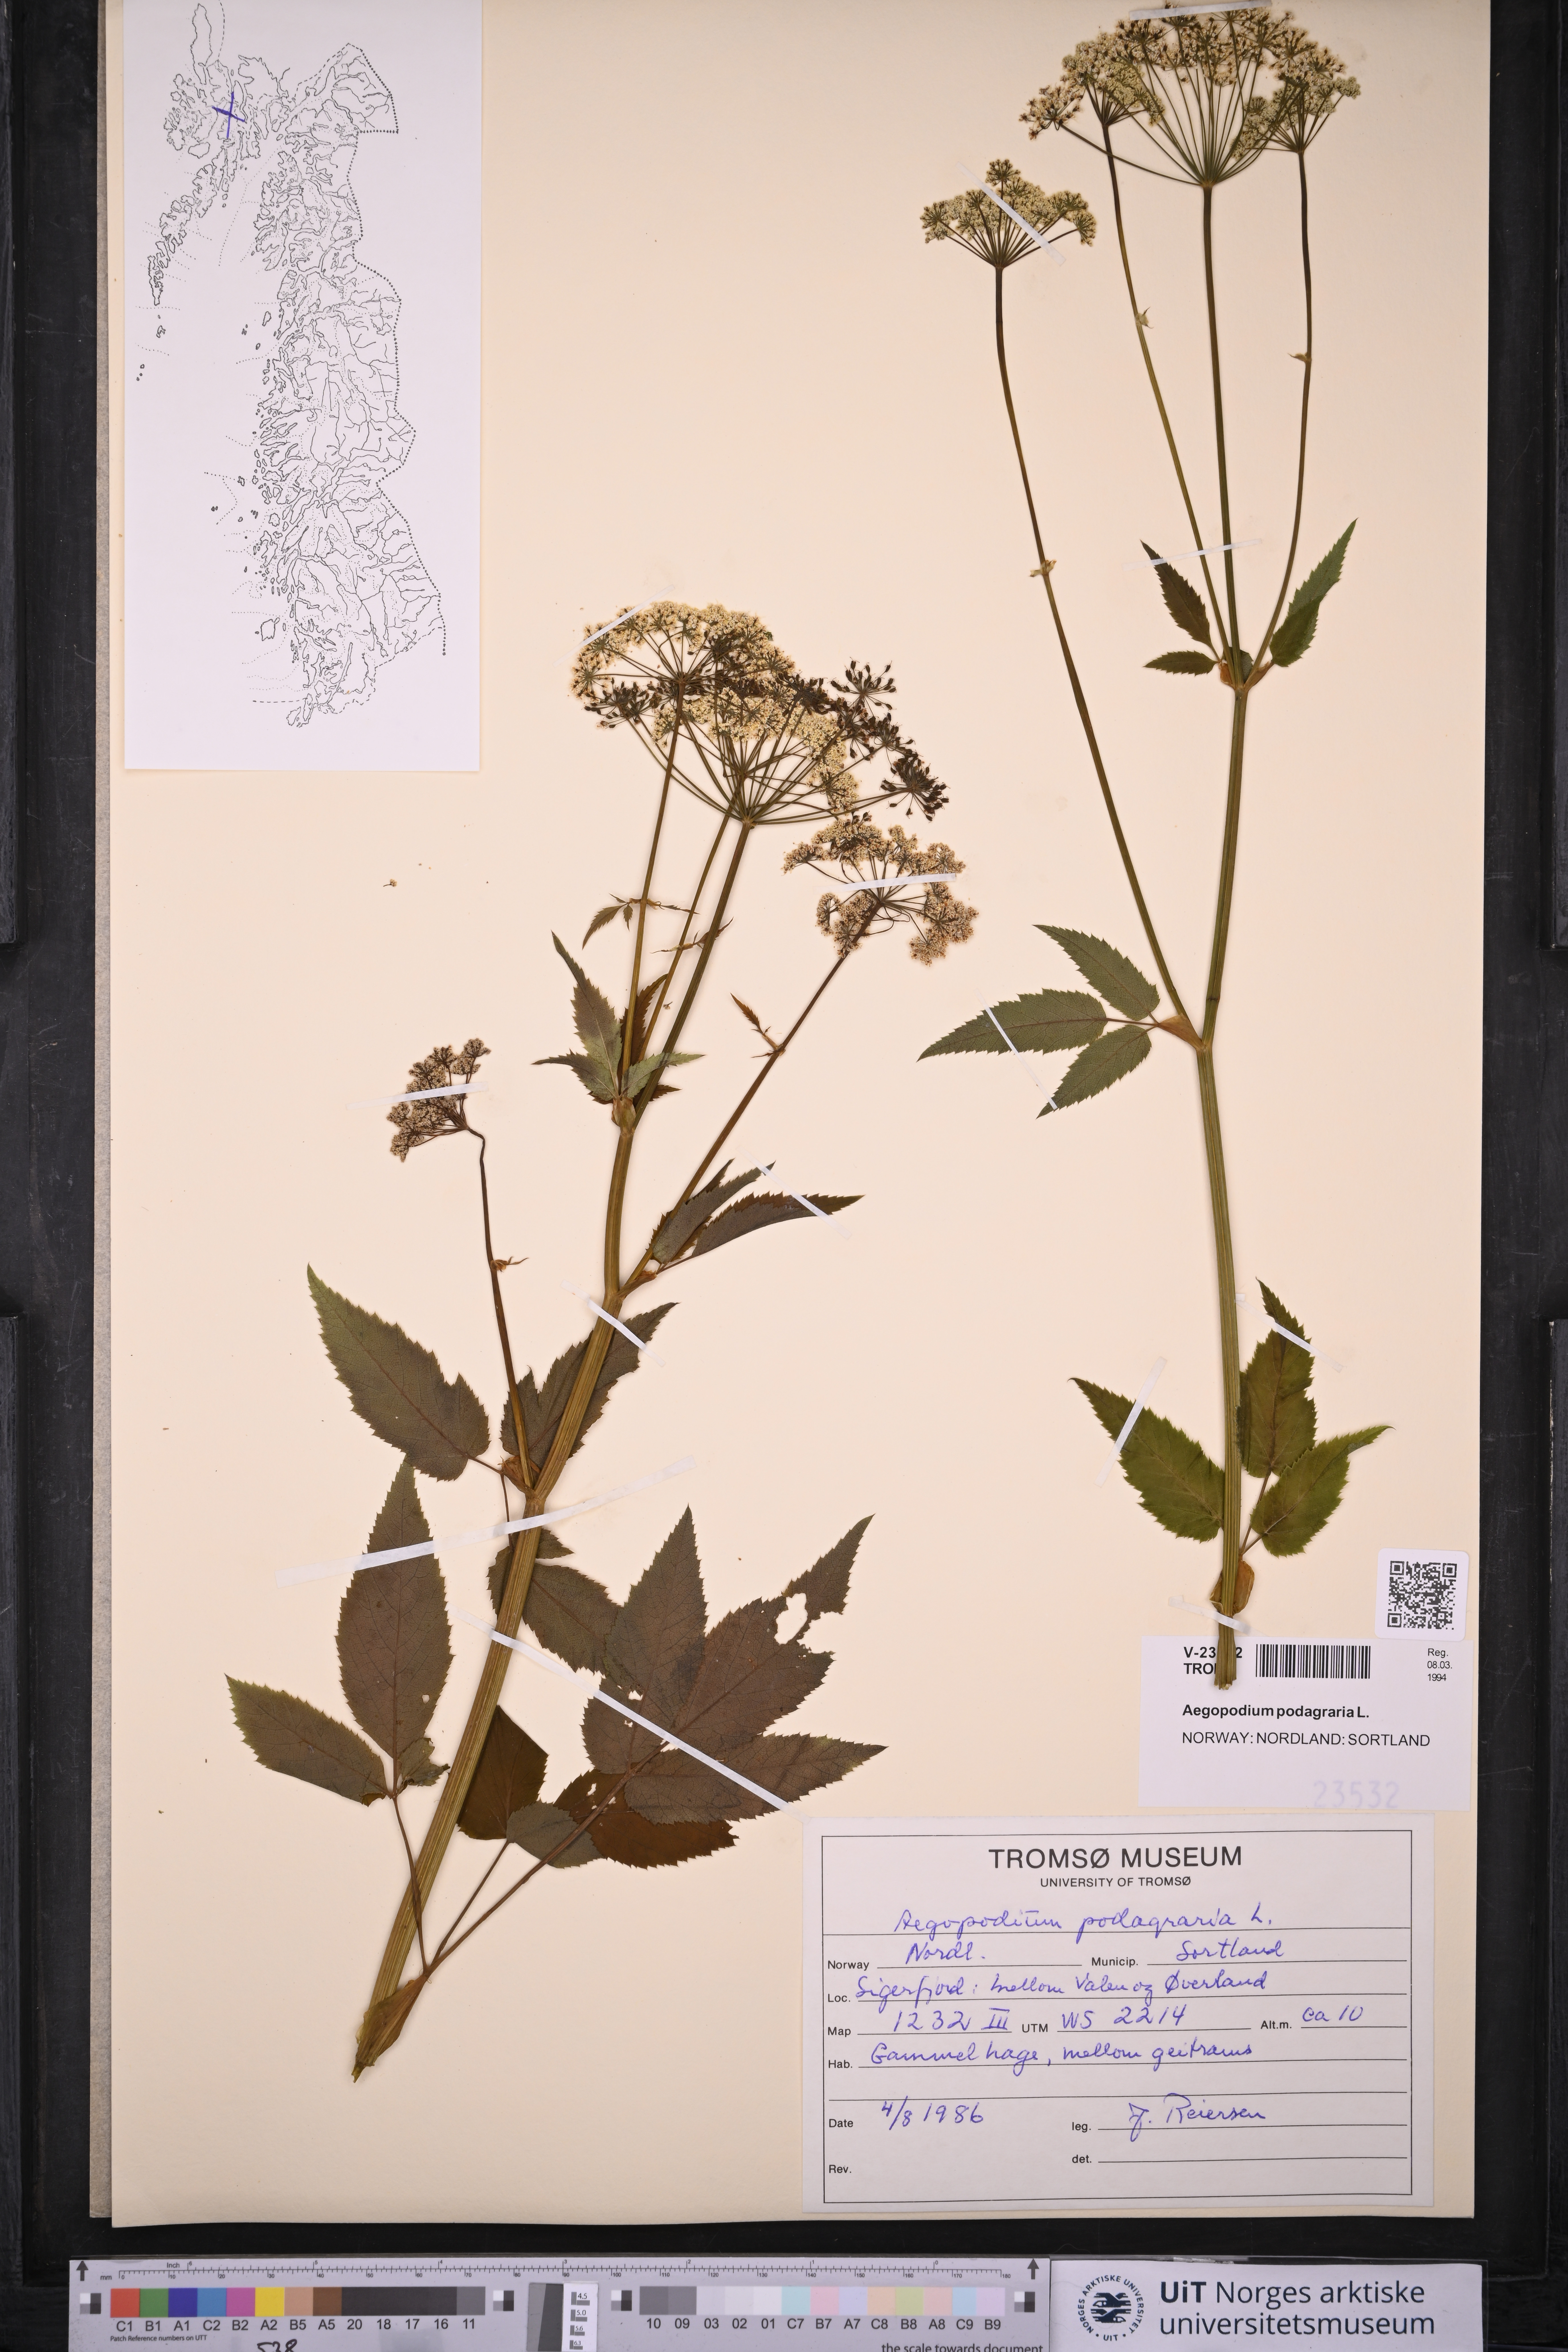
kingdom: Plantae
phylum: Tracheophyta
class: Magnoliopsida
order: Apiales
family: Apiaceae
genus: Aegopodium
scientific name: Aegopodium podagraria
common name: Ground-elder
